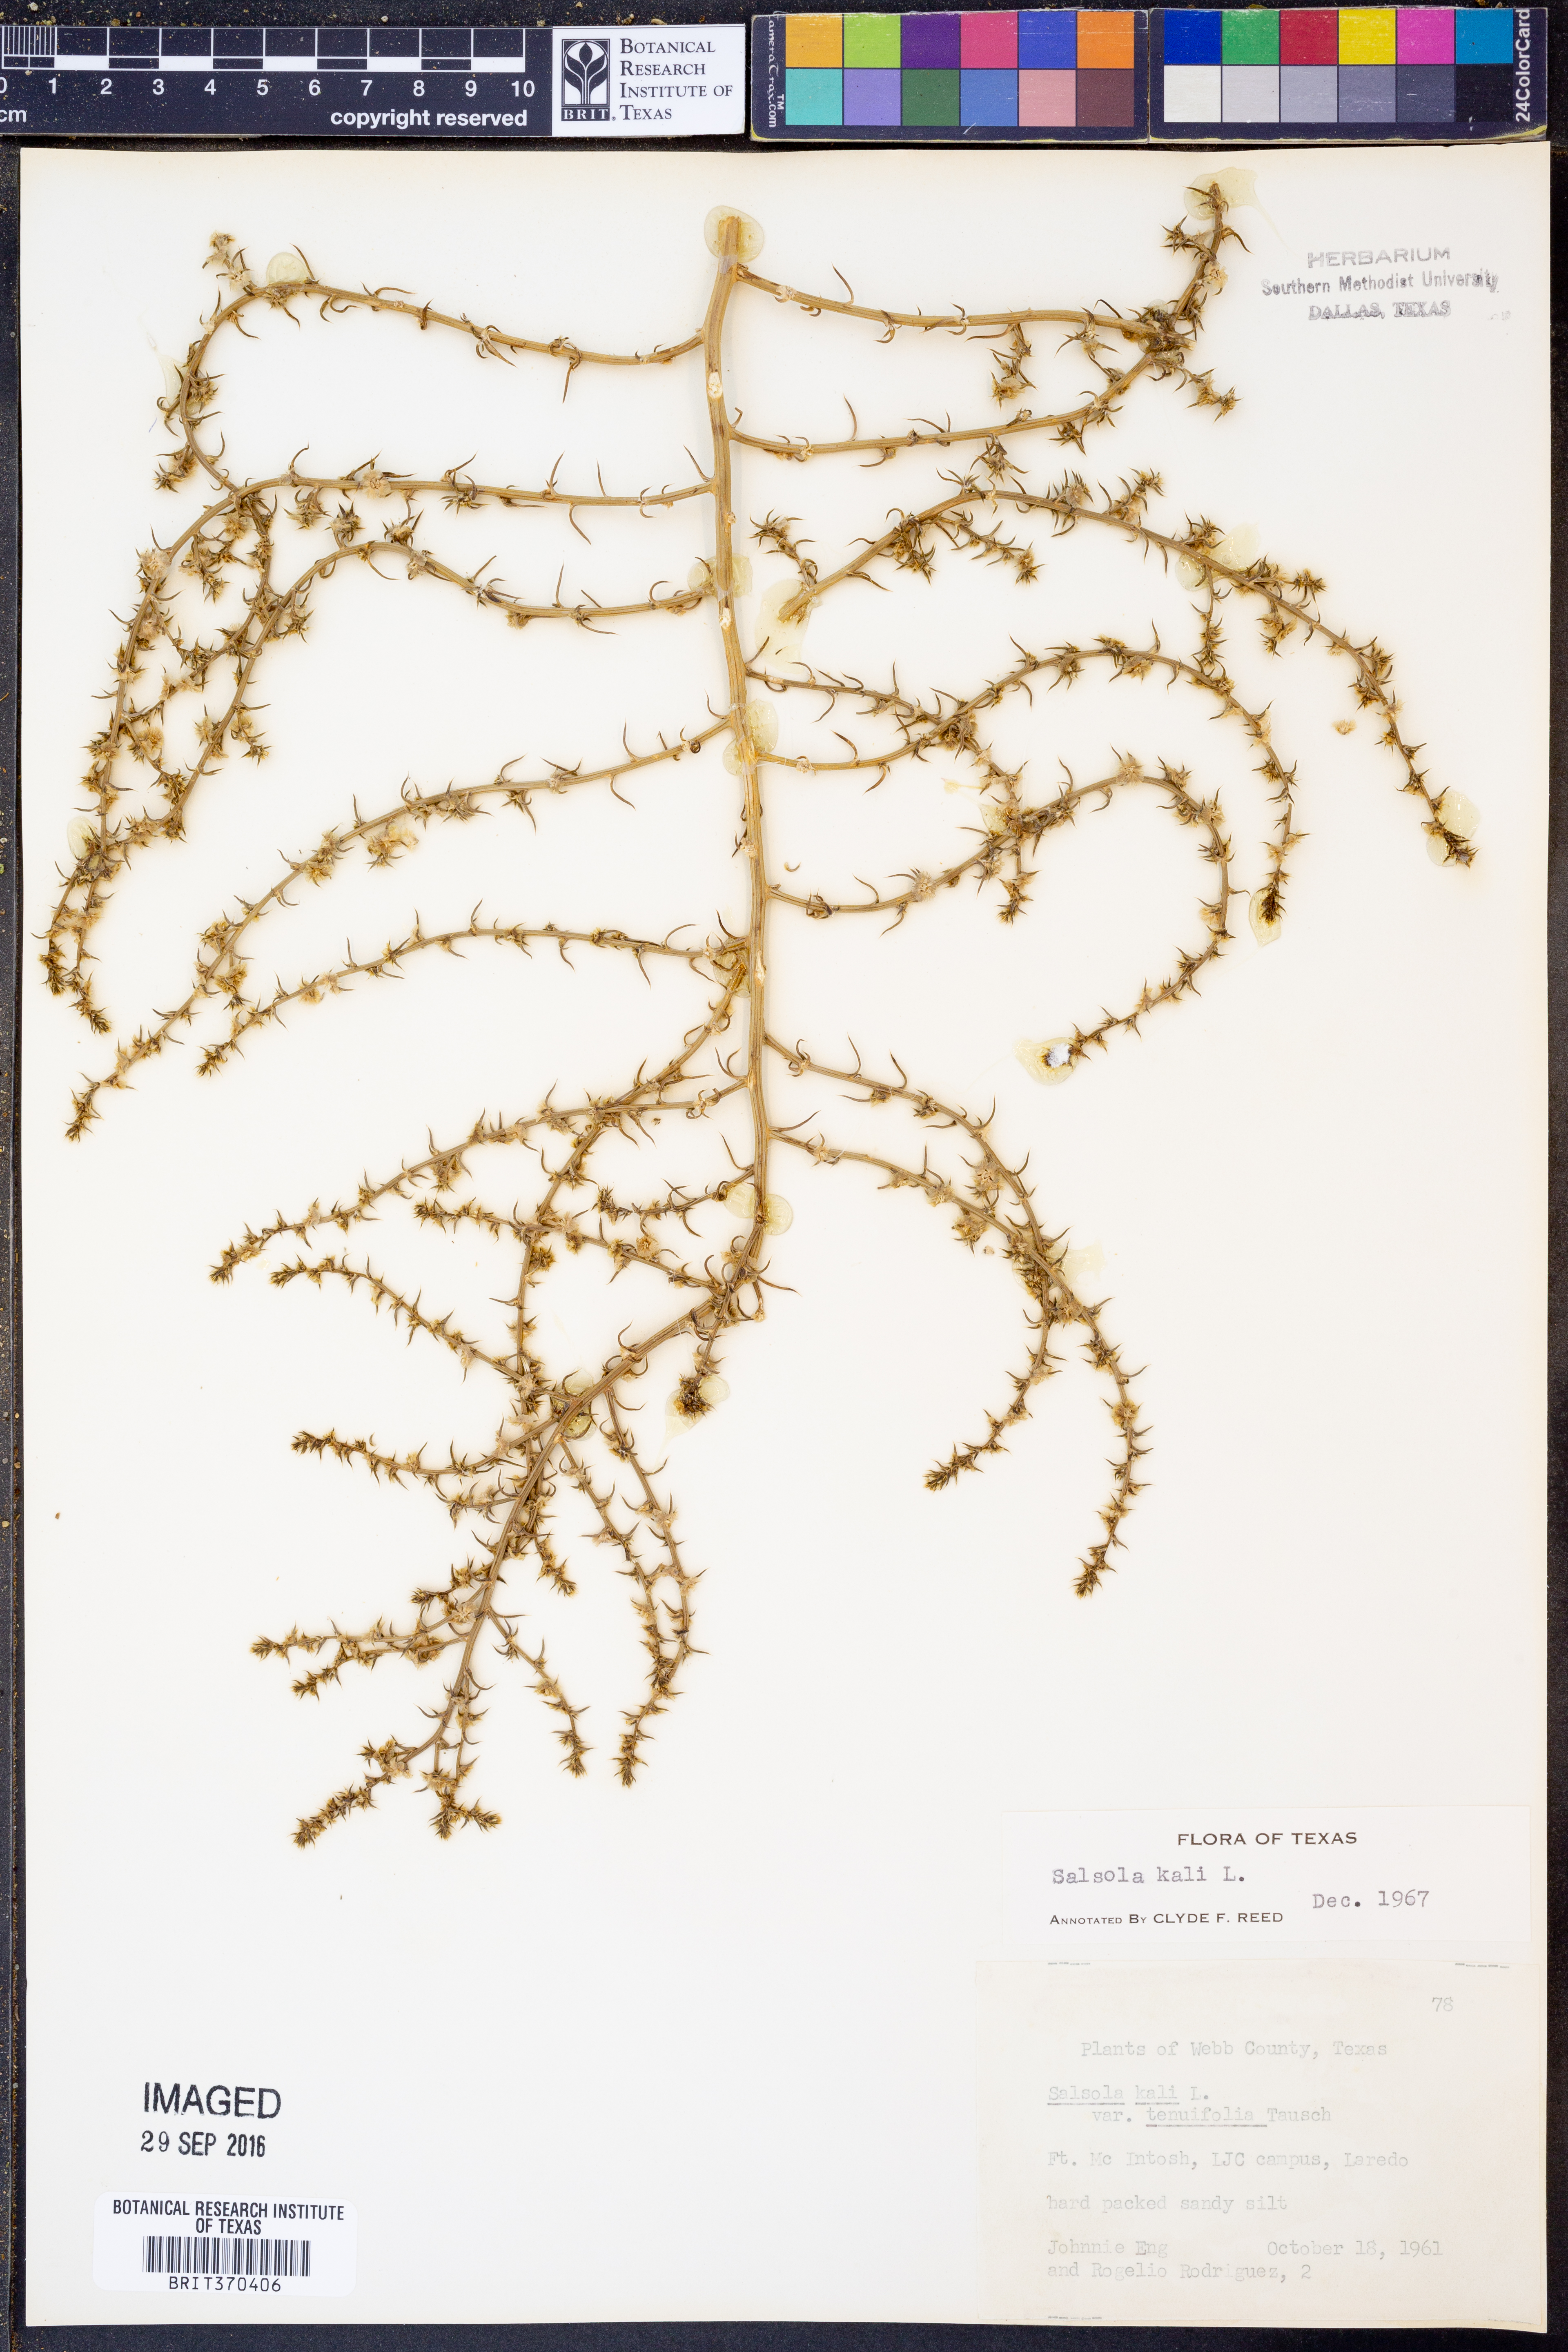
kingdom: Plantae
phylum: Tracheophyta
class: Magnoliopsida
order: Caryophyllales
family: Amaranthaceae
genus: Salsola
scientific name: Salsola kali
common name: Saltwort
